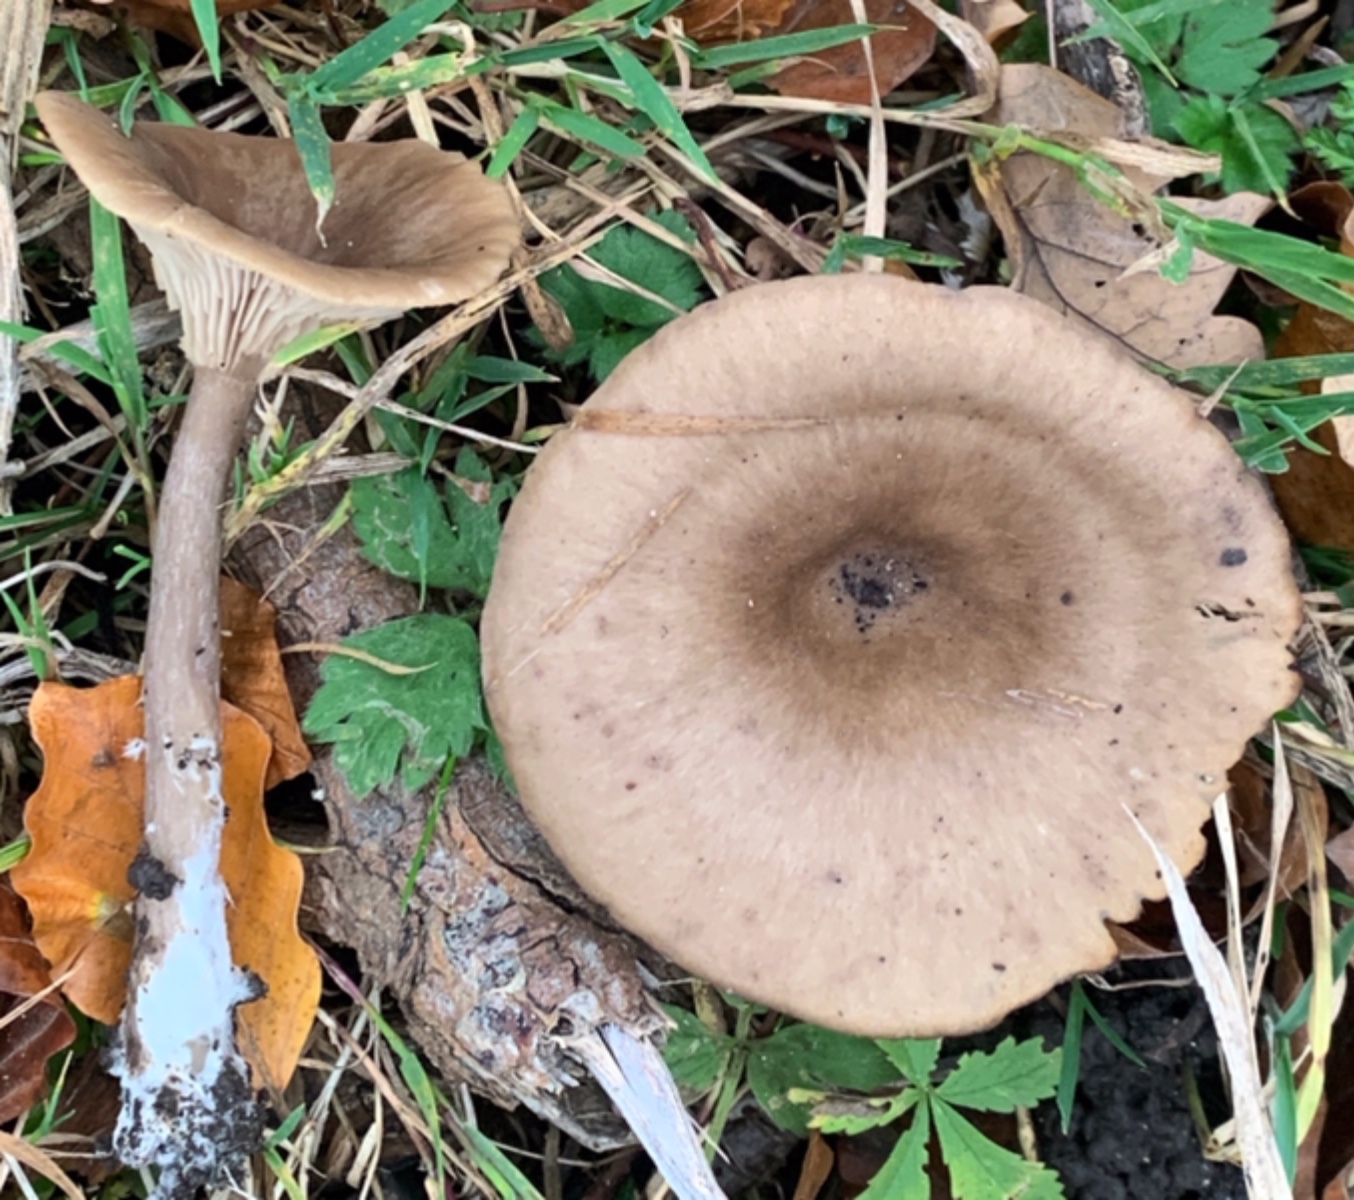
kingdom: Fungi
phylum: Basidiomycota
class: Agaricomycetes
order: Agaricales
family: Pseudoclitocybaceae
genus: Pseudoclitocybe
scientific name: Pseudoclitocybe cyathiformis
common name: almindelig bægertragthat
